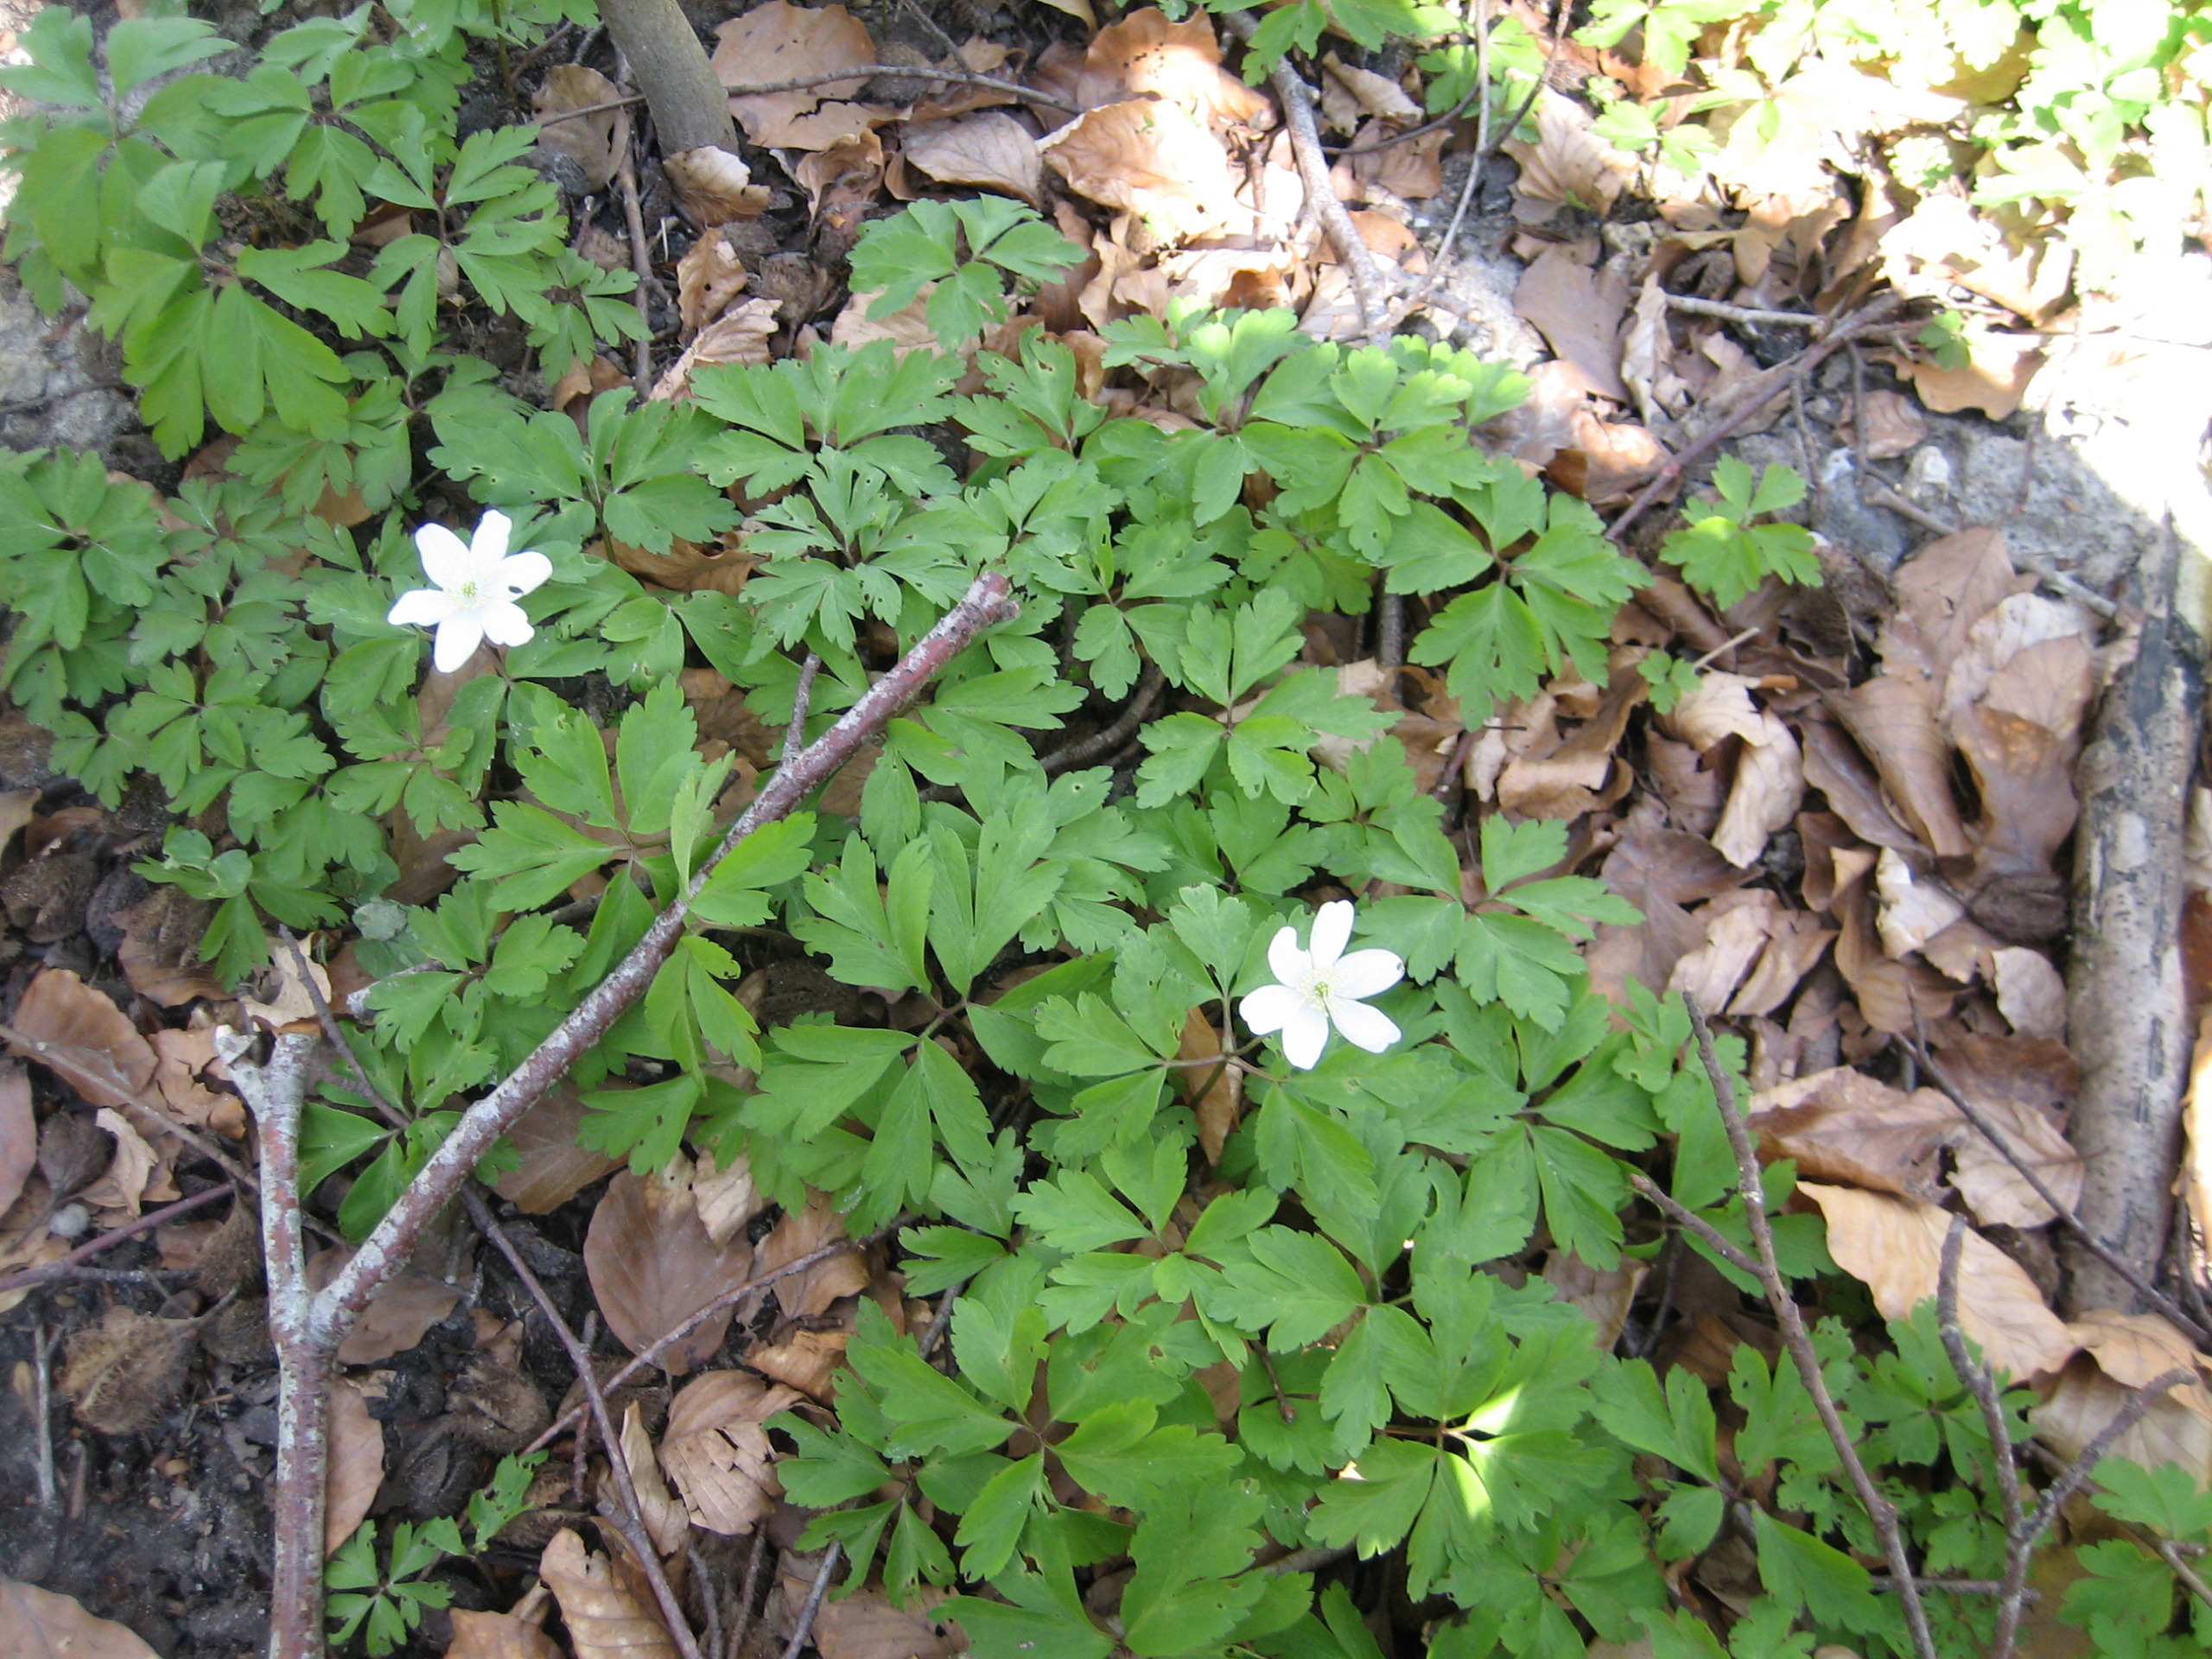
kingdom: Plantae
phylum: Tracheophyta
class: Magnoliopsida
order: Ranunculales
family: Ranunculaceae
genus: Anemone
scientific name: Anemone nemorosa
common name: Hvid anemone
